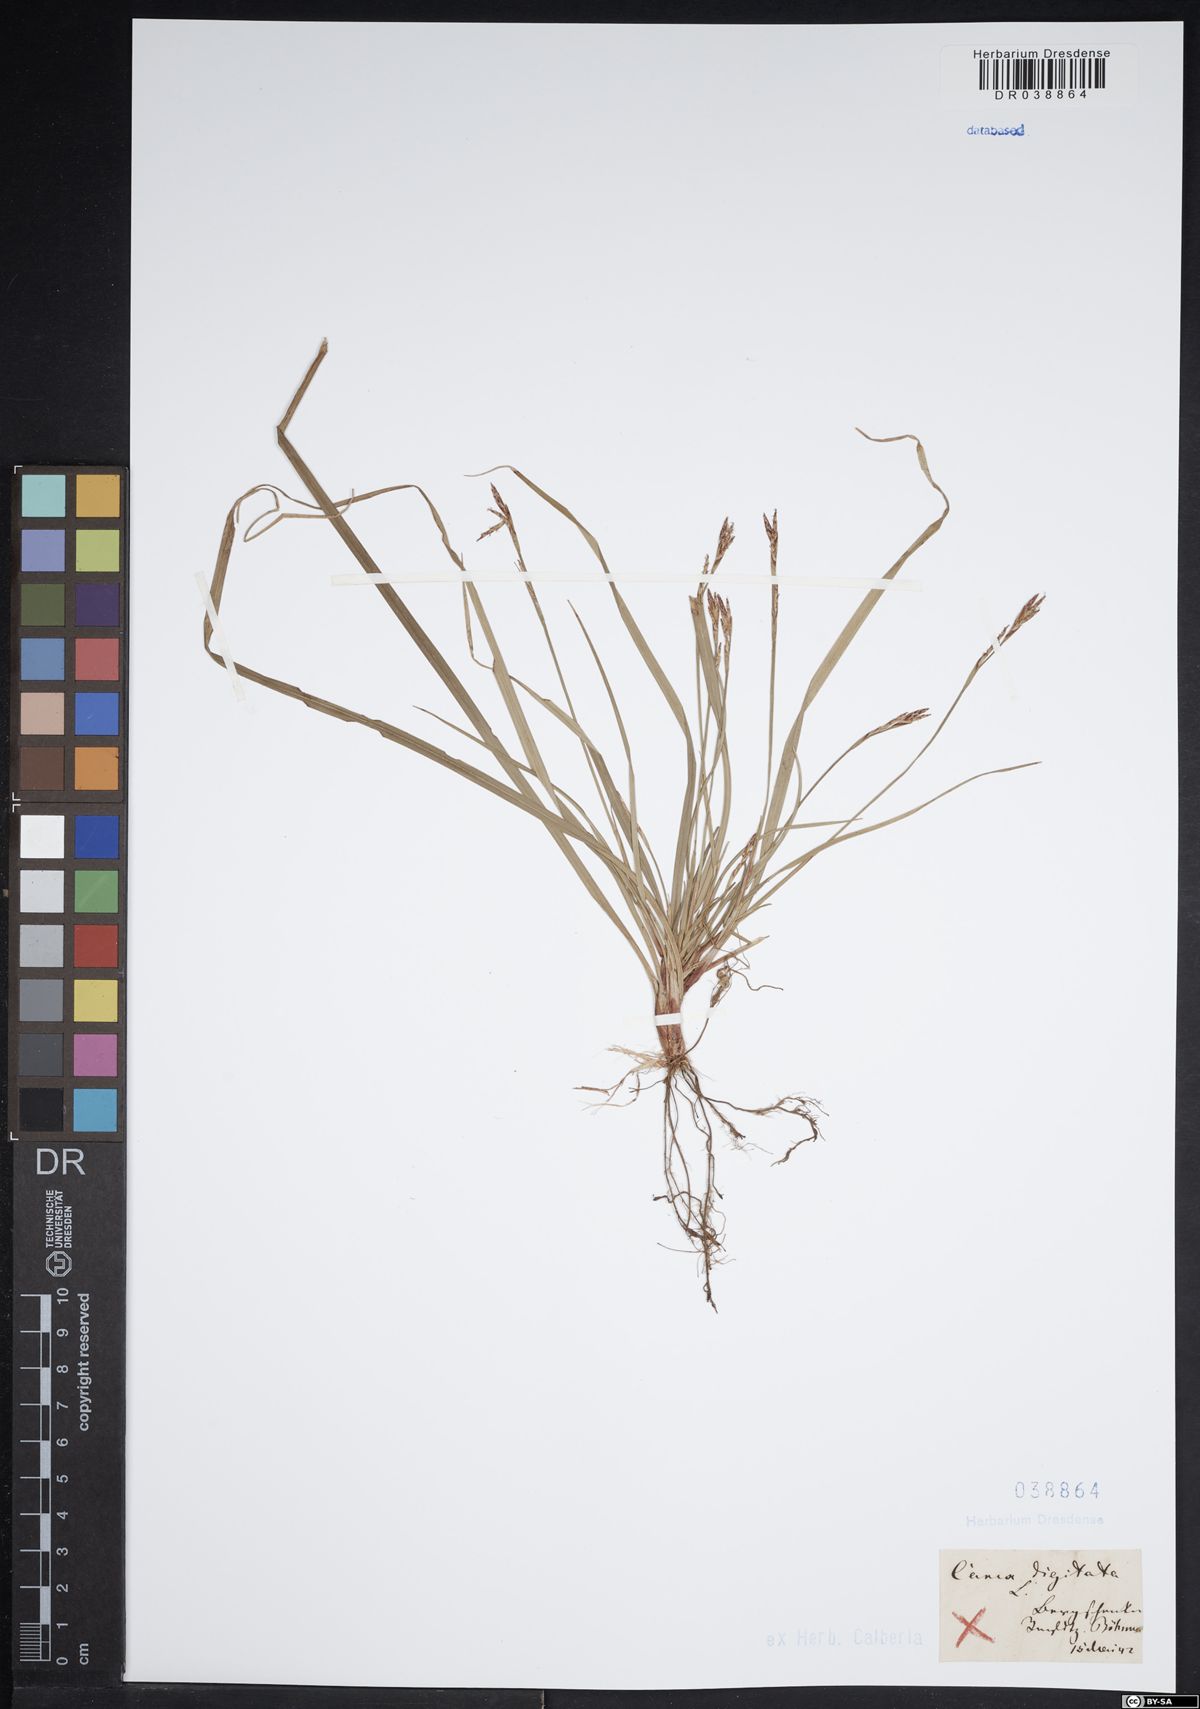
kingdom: Plantae
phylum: Tracheophyta
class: Liliopsida
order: Poales
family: Cyperaceae
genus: Carex
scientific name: Carex digitata
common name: Fingered sedge
